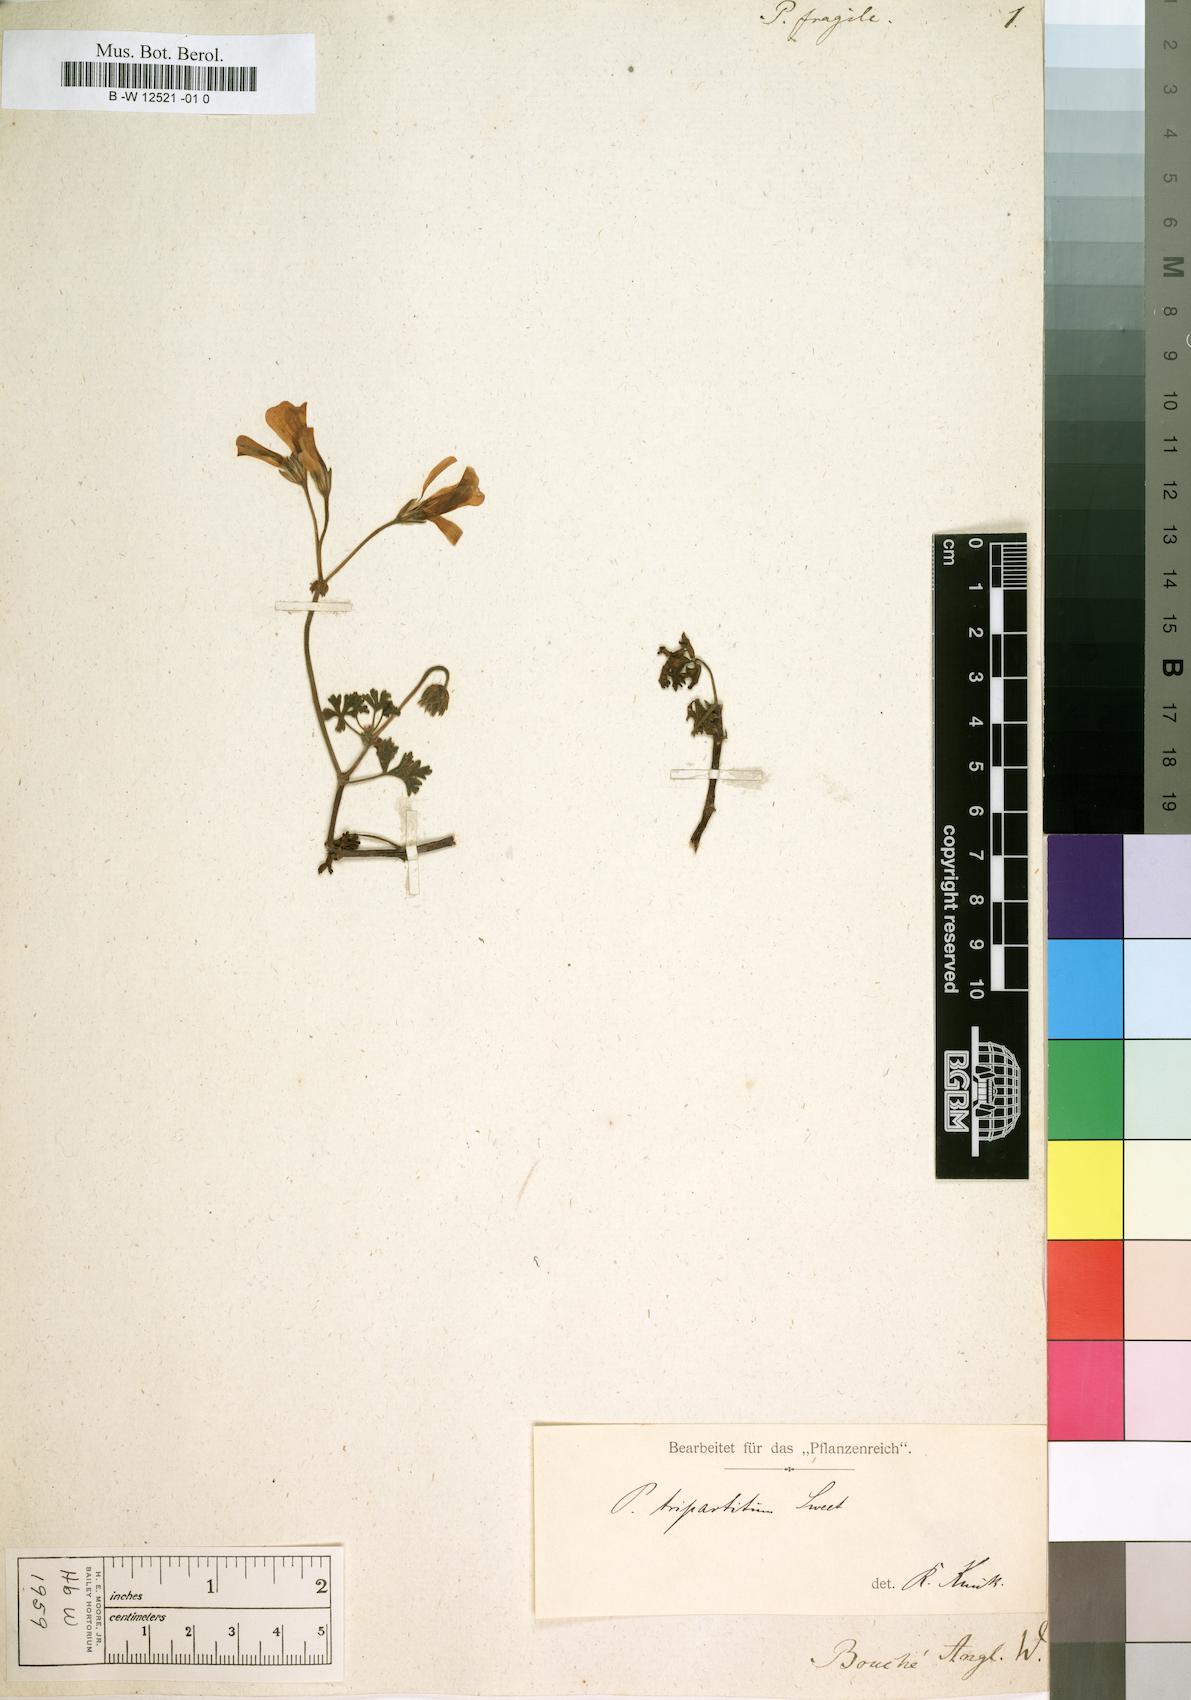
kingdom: Plantae
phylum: Tracheophyta
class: Magnoliopsida
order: Geraniales
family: Geraniaceae
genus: Pelargonium
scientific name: Pelargonium trifidum
